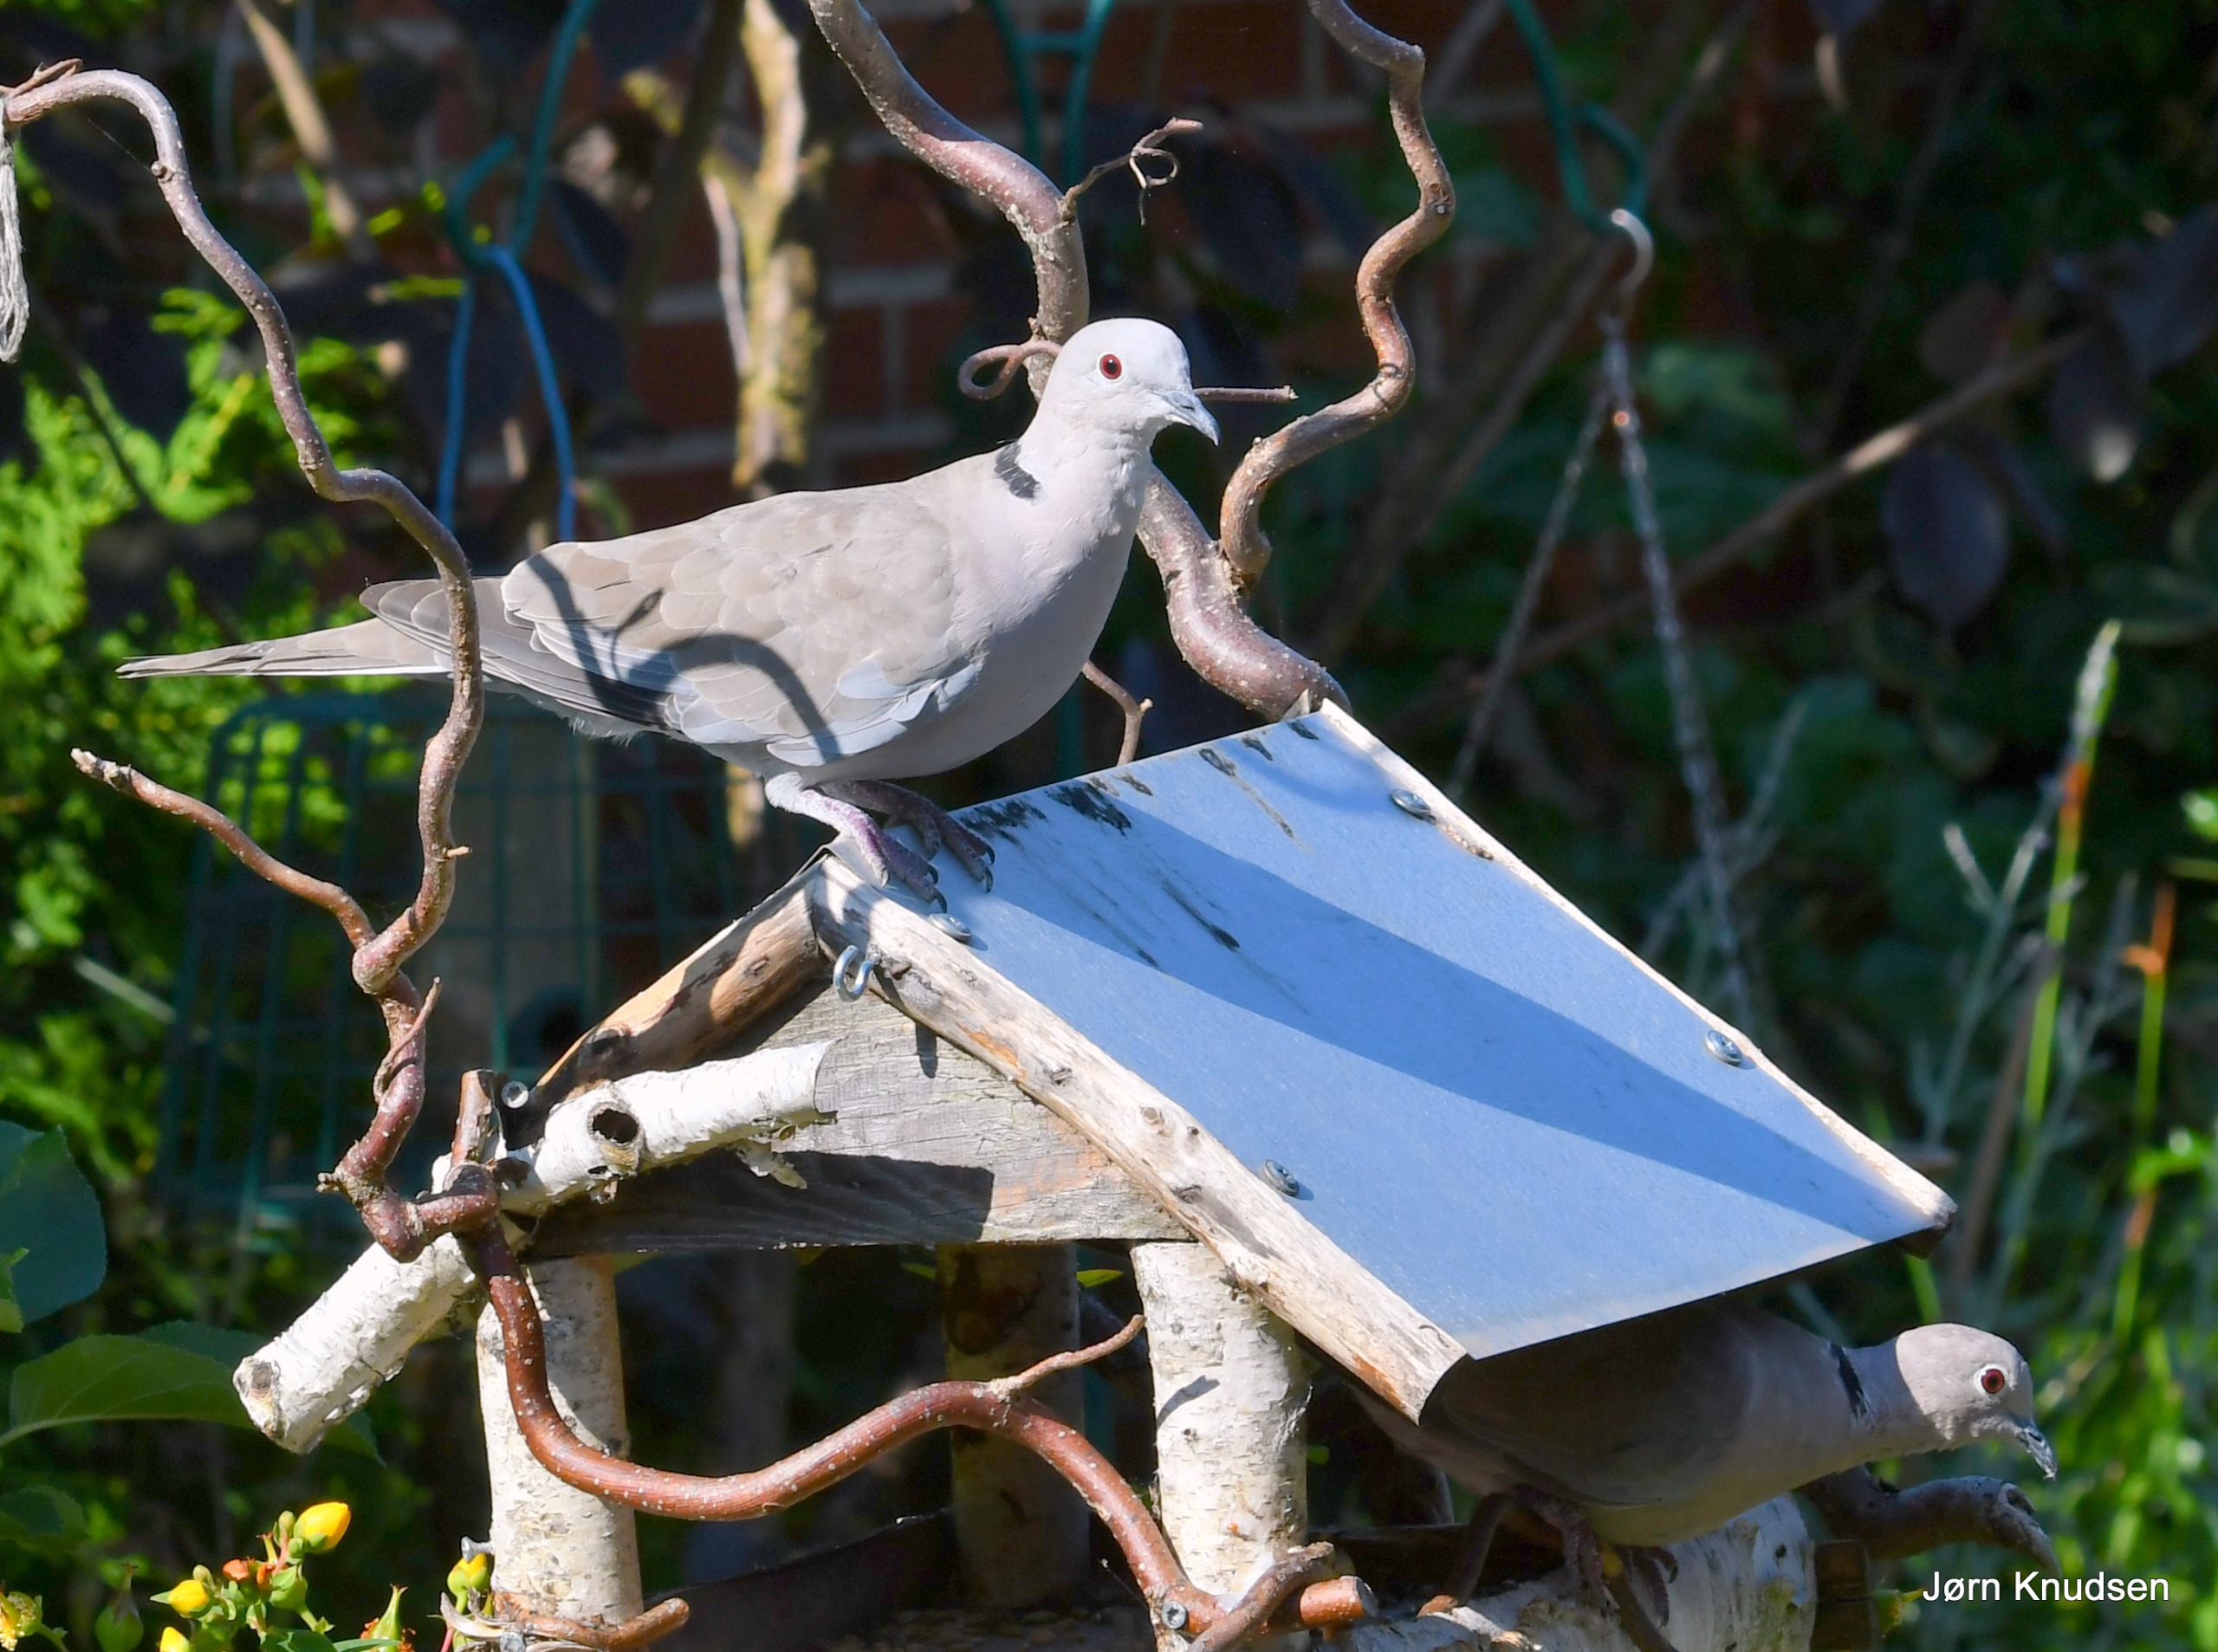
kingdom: Animalia
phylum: Chordata
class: Aves
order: Columbiformes
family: Columbidae
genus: Streptopelia
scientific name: Streptopelia decaocto
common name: Tyrkerdue
